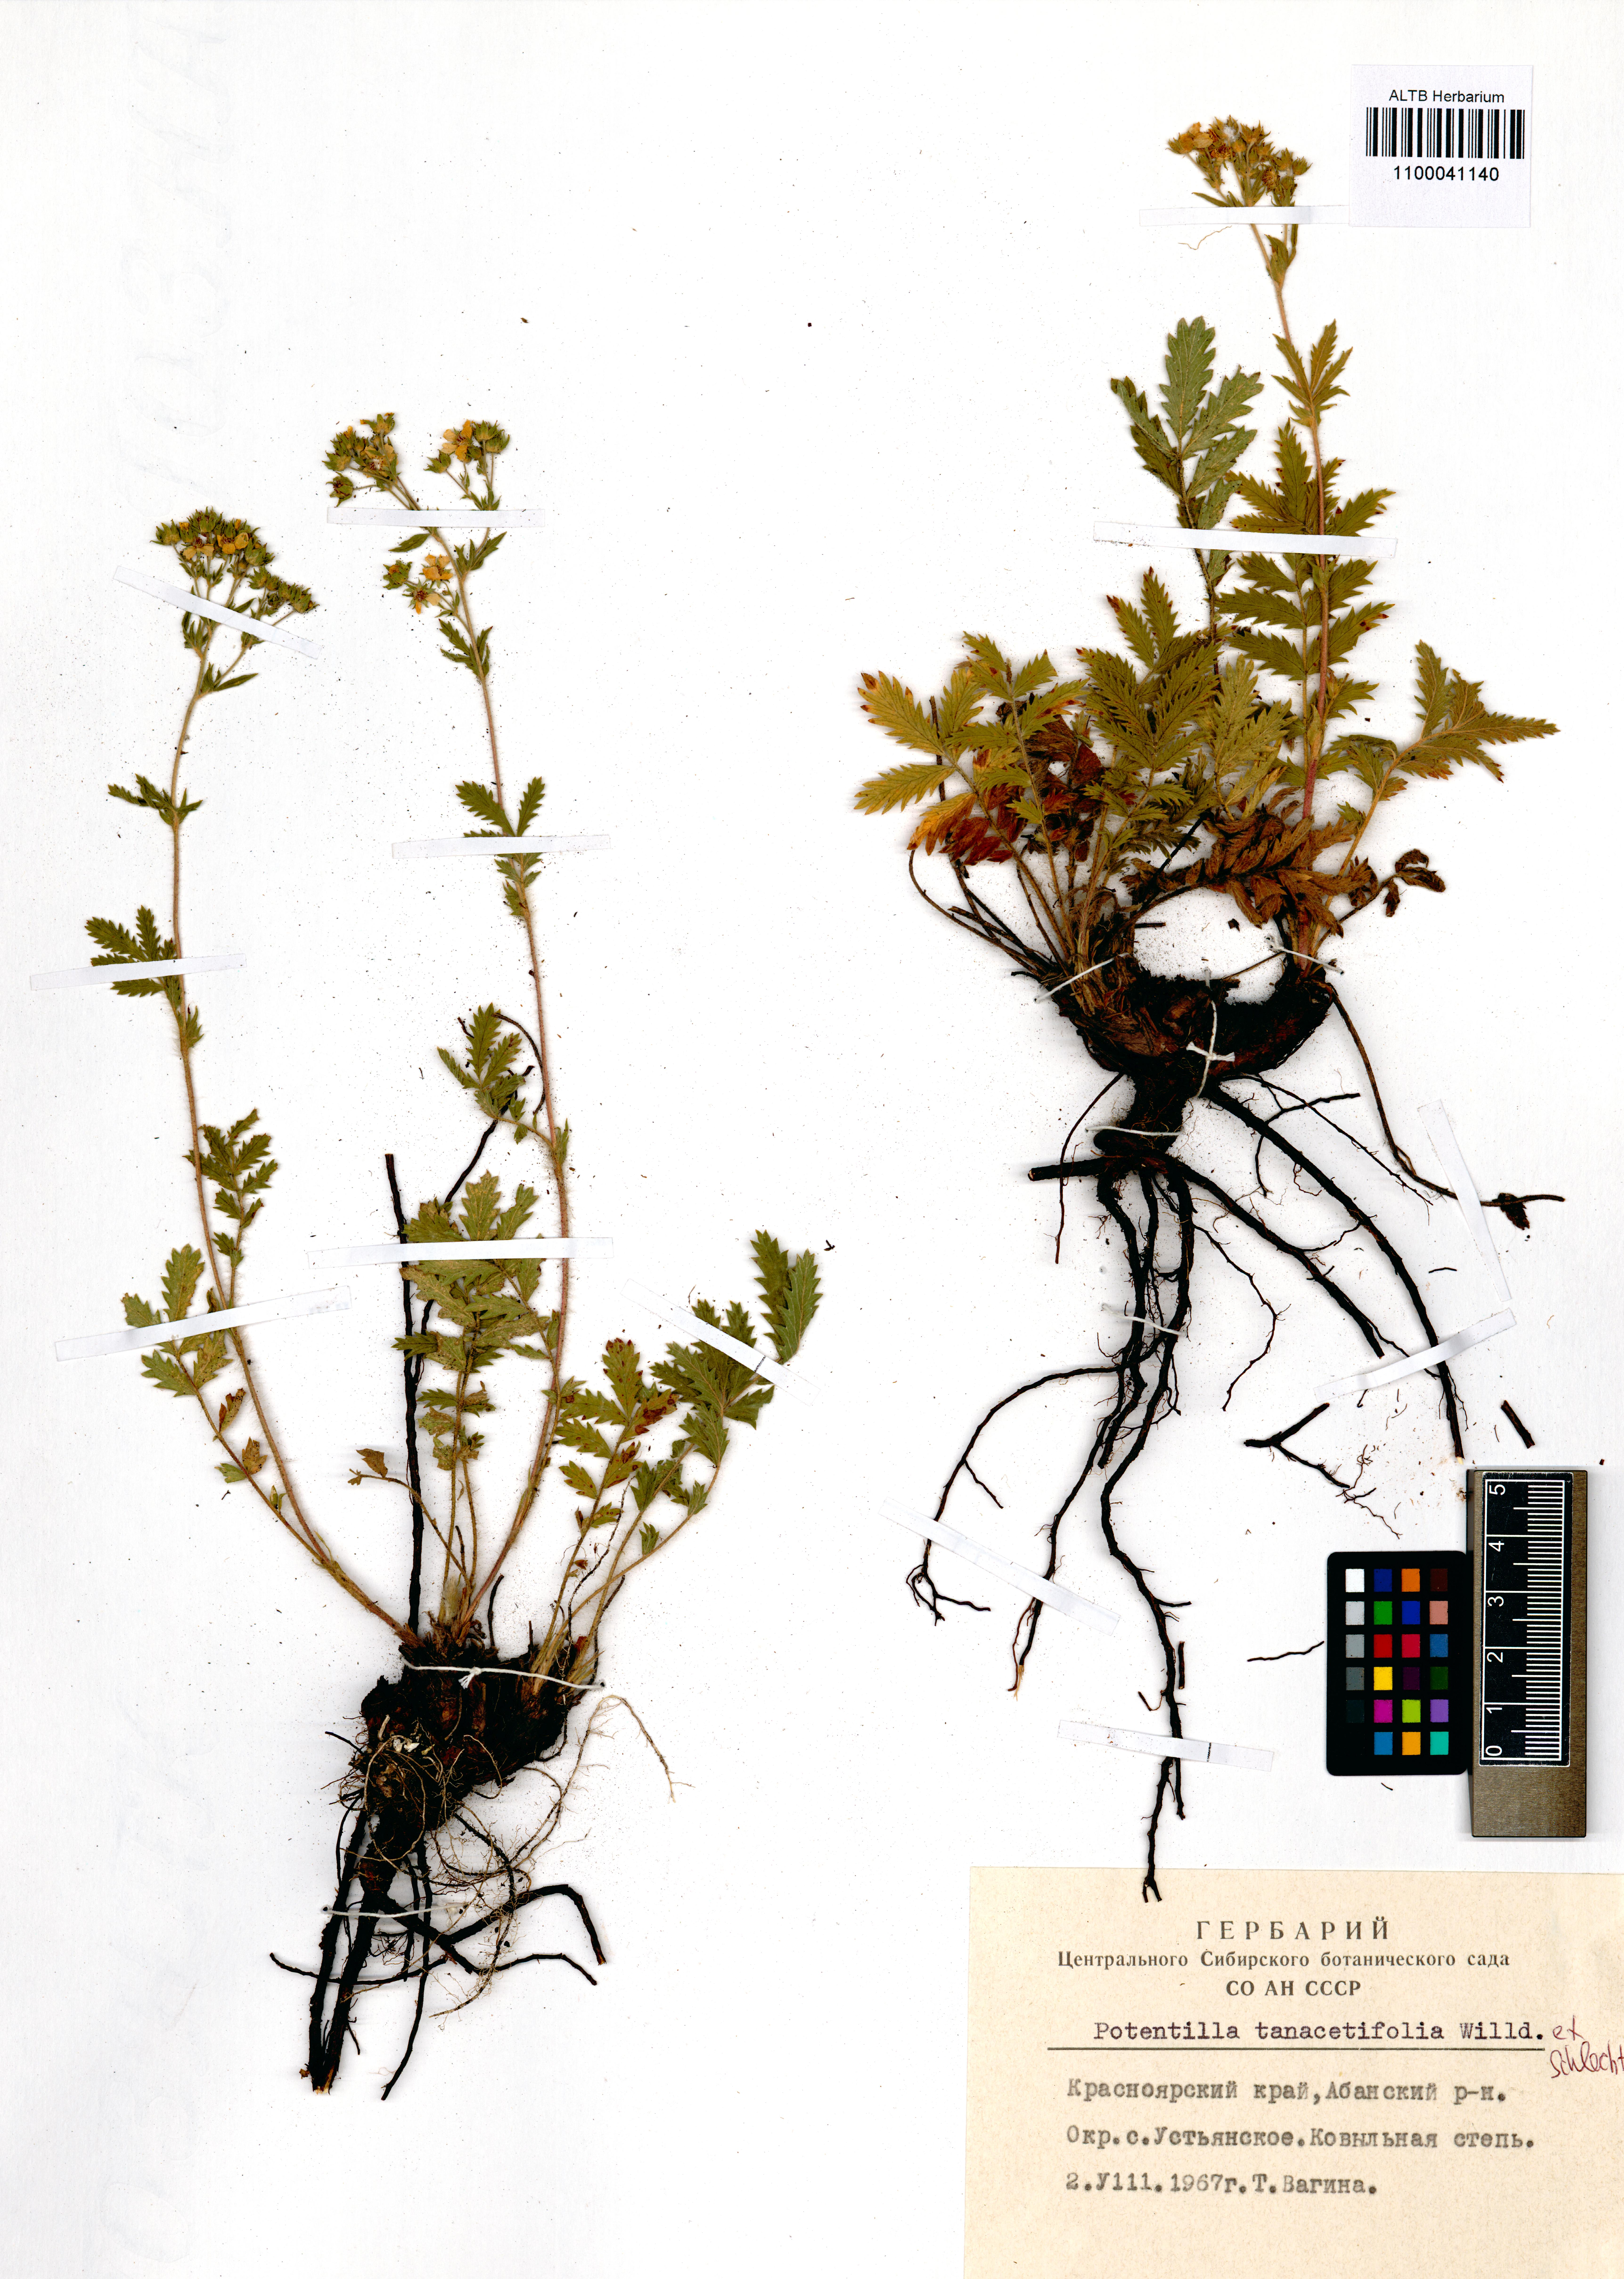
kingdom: Plantae
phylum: Tracheophyta
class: Magnoliopsida
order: Rosales
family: Rosaceae
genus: Potentilla
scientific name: Potentilla tanacetifolia
